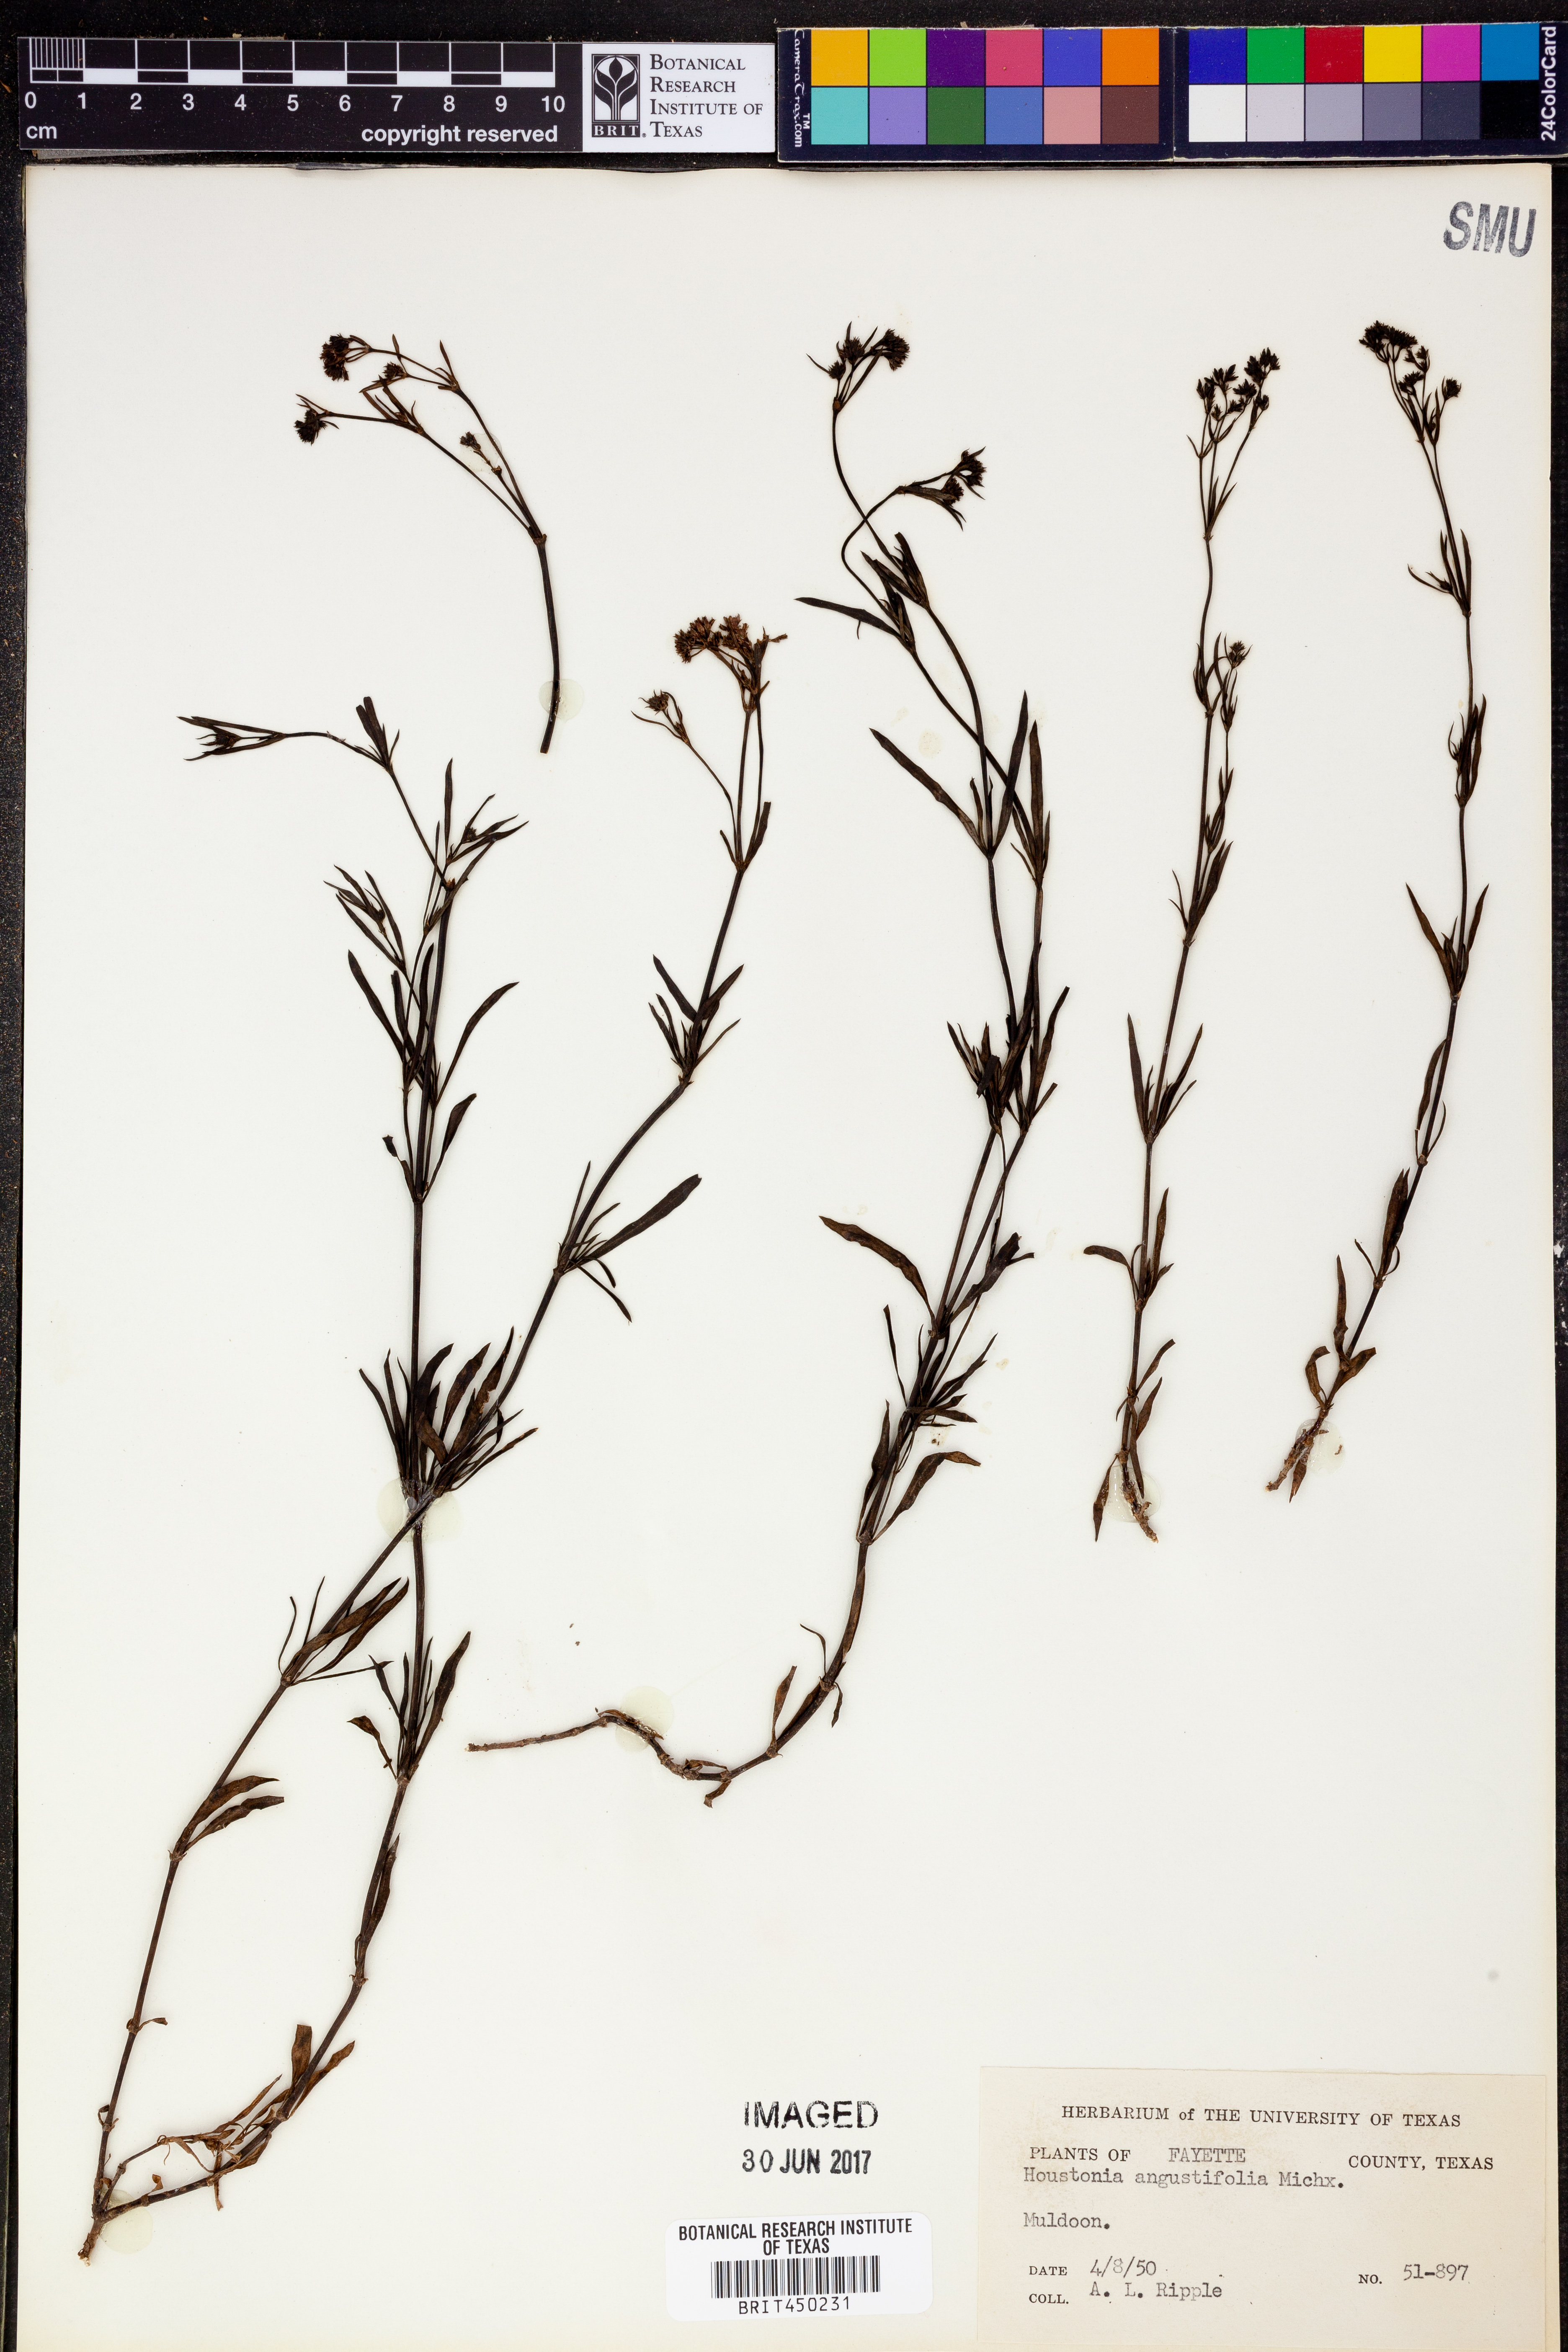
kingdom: Plantae
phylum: Tracheophyta
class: Magnoliopsida
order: Gentianales
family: Rubiaceae
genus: Stenaria
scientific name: Stenaria nigricans
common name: Diamondflowers
